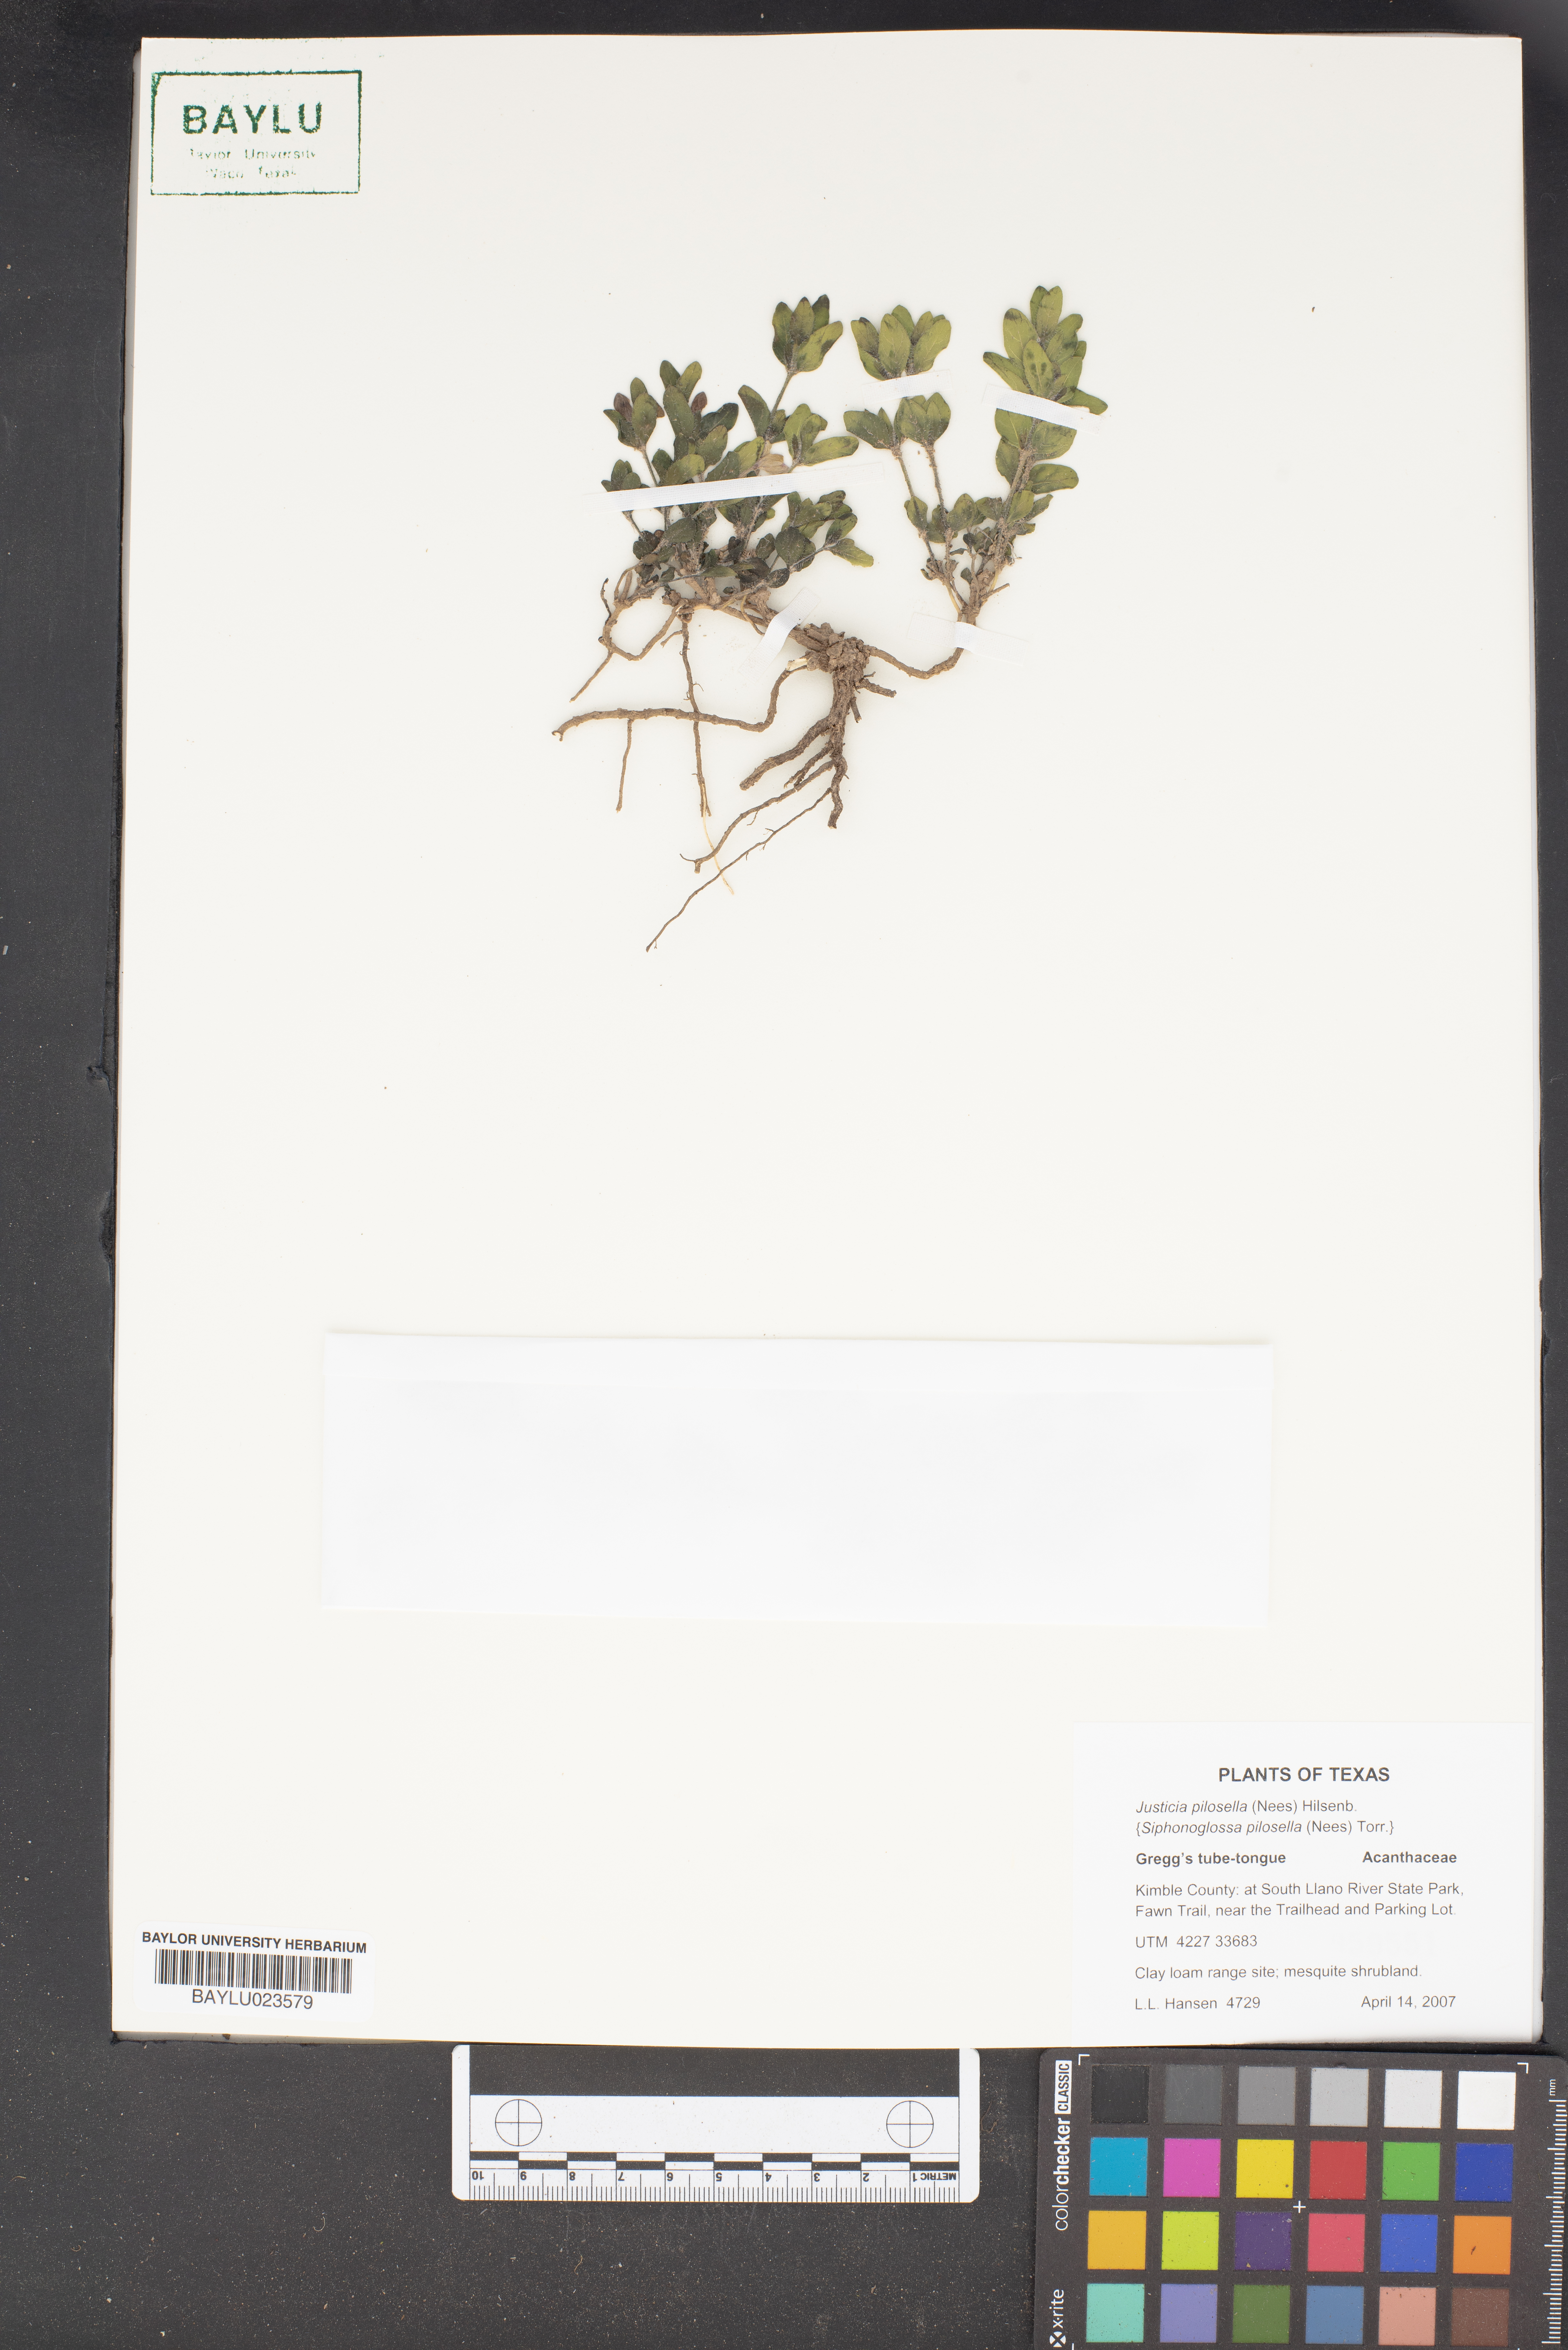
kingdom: Plantae
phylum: Tracheophyta
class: Magnoliopsida
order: Lamiales
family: Acanthaceae
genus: Justicia
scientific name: Justicia pilosella
